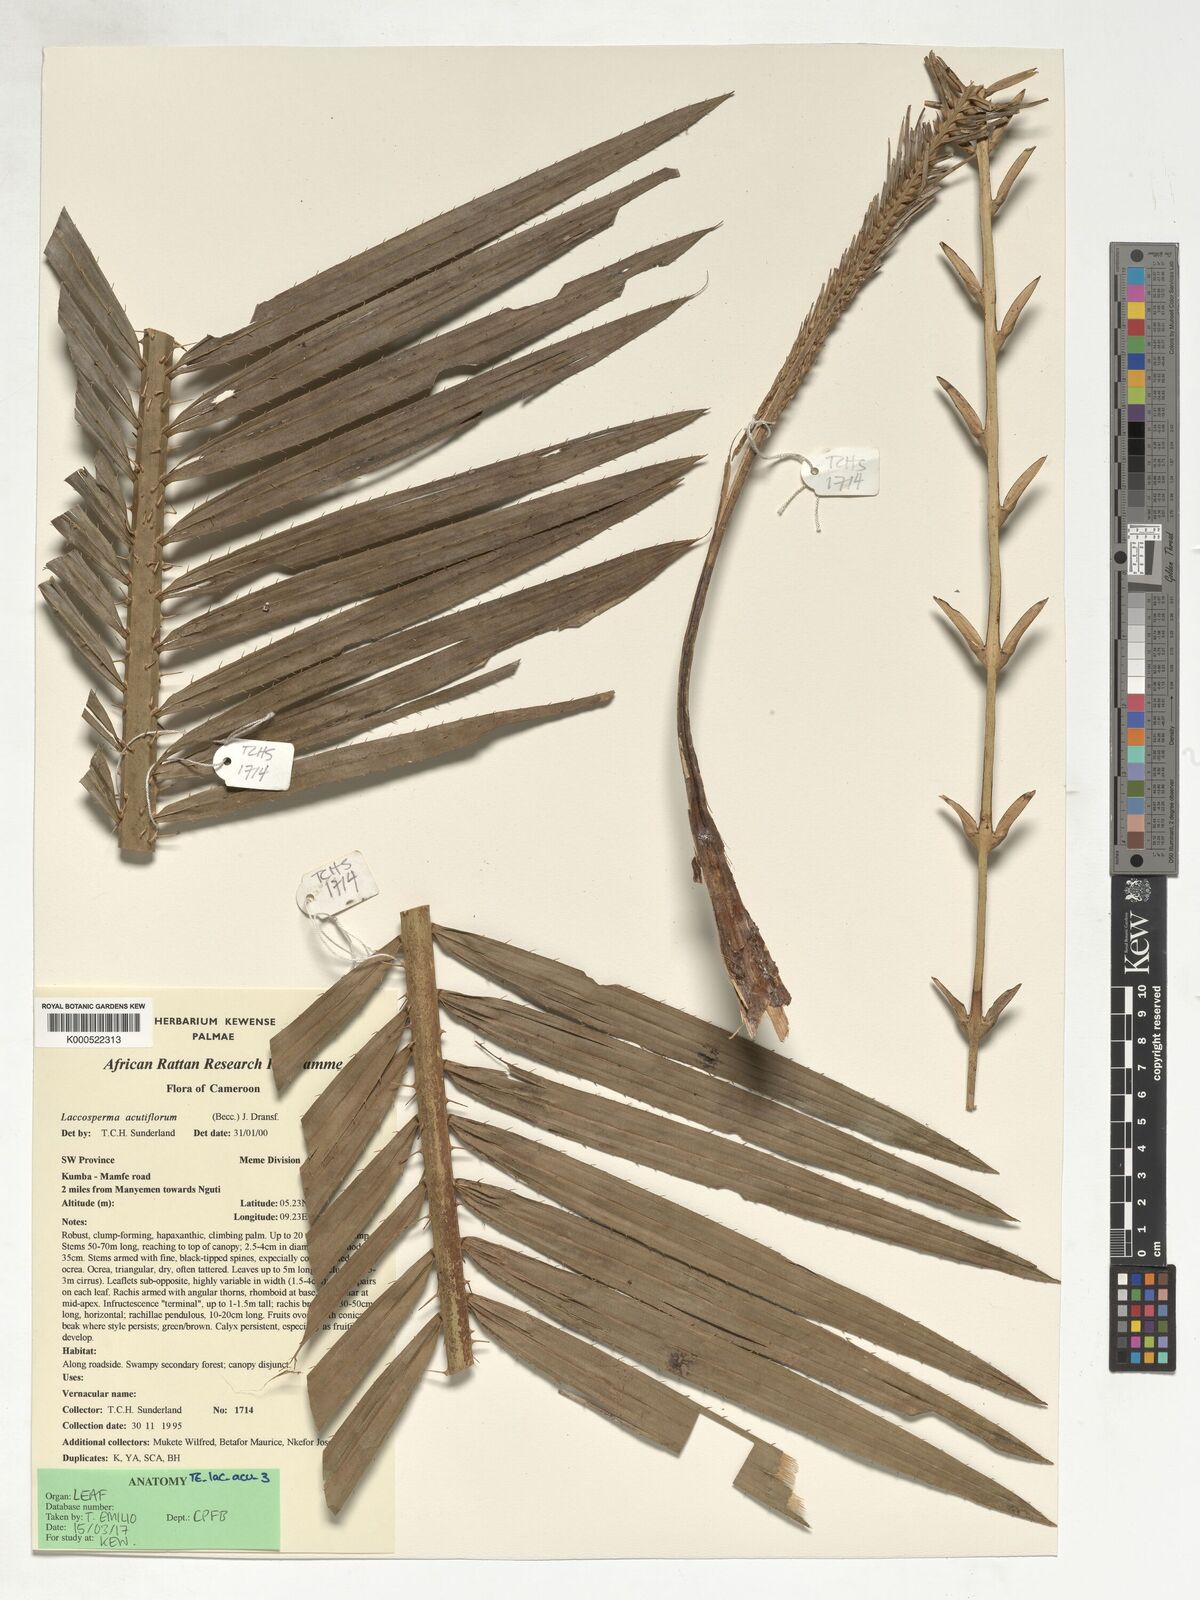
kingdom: Plantae
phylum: Tracheophyta
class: Liliopsida
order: Arecales
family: Arecaceae
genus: Laccosperma
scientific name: Laccosperma acutiflorum
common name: Rattan
